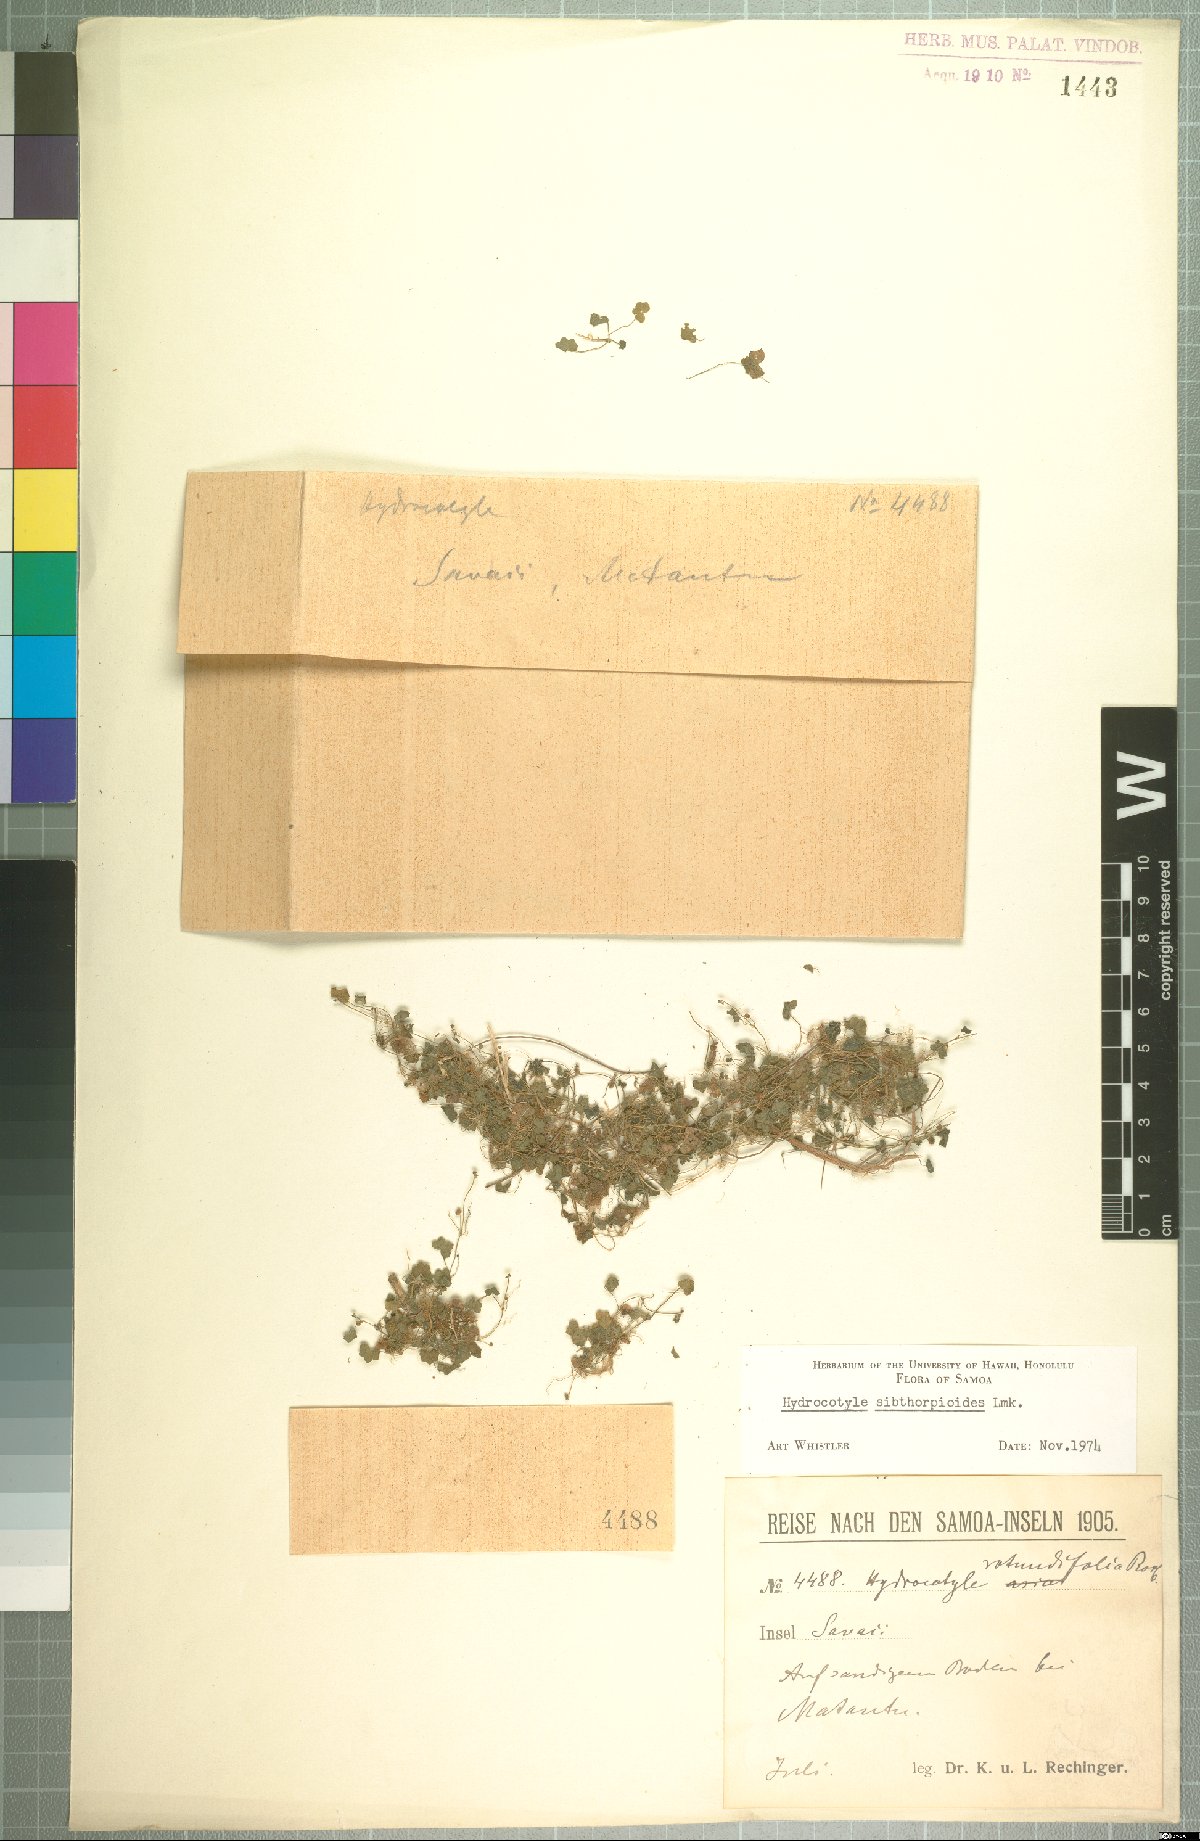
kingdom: Plantae
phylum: Tracheophyta
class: Magnoliopsida
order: Apiales
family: Araliaceae
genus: Hydrocotyle
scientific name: Hydrocotyle sibthorpioides
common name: Lawn marshpennywort
